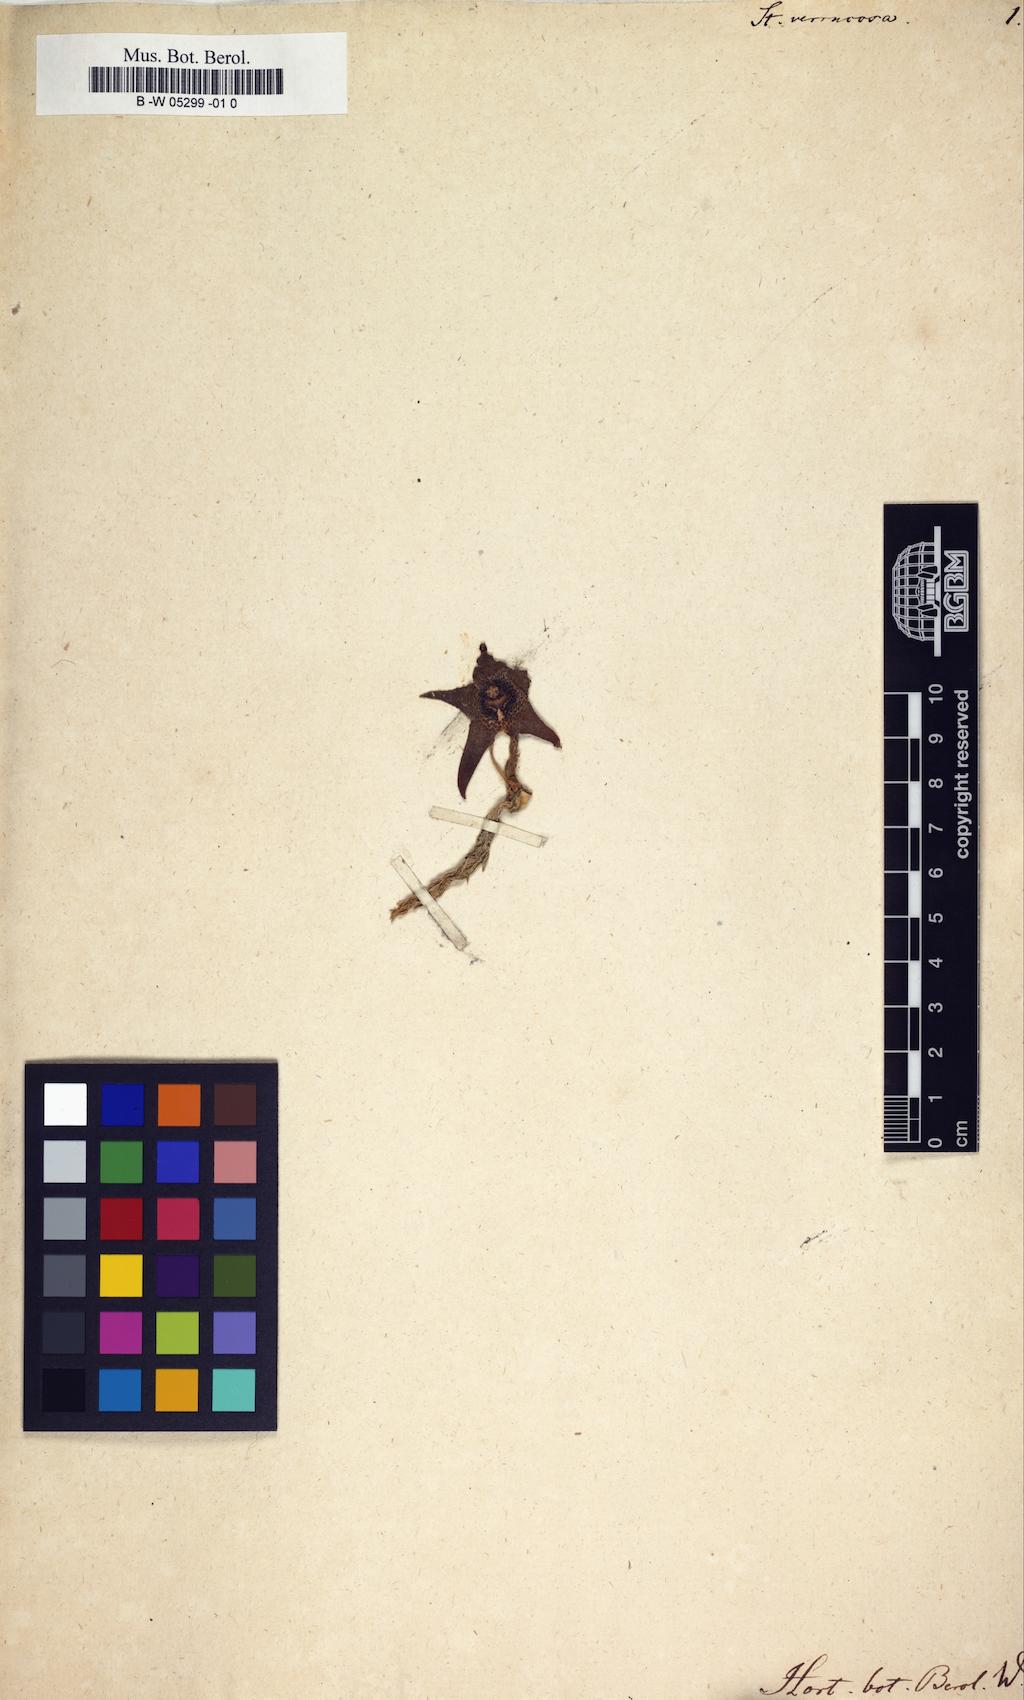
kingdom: Plantae
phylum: Tracheophyta
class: Magnoliopsida
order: Gentianales
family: Apocynaceae
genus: Ceropegia
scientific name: Ceropegia irrorata
